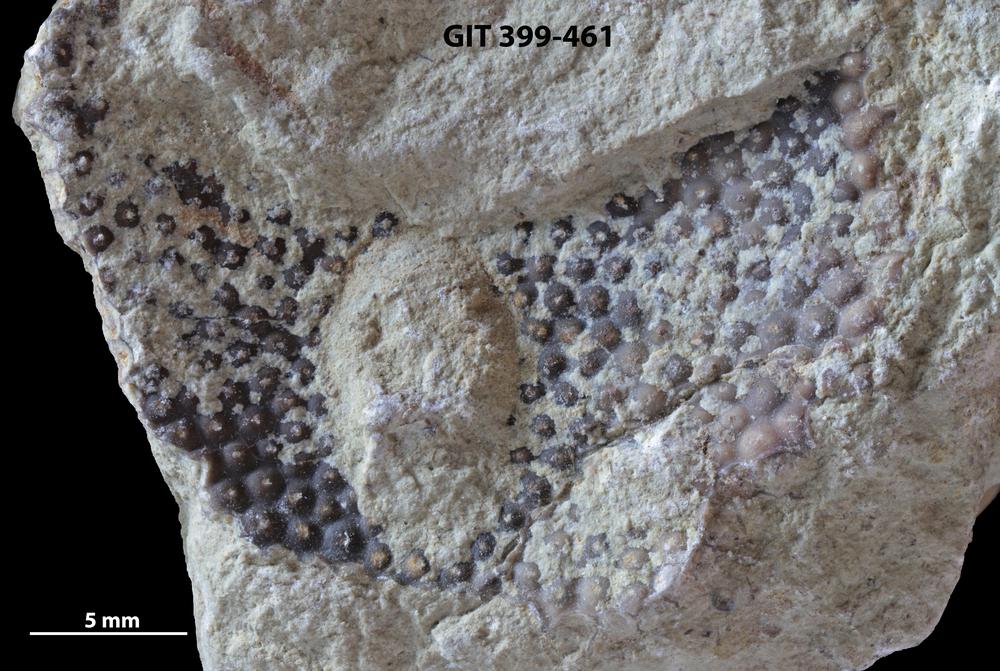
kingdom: Plantae
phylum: Chlorophyta
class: Ulvophyceae
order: Cyclocrinales
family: Cyclocrinaceae
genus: Mastopora
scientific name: Mastopora concava
